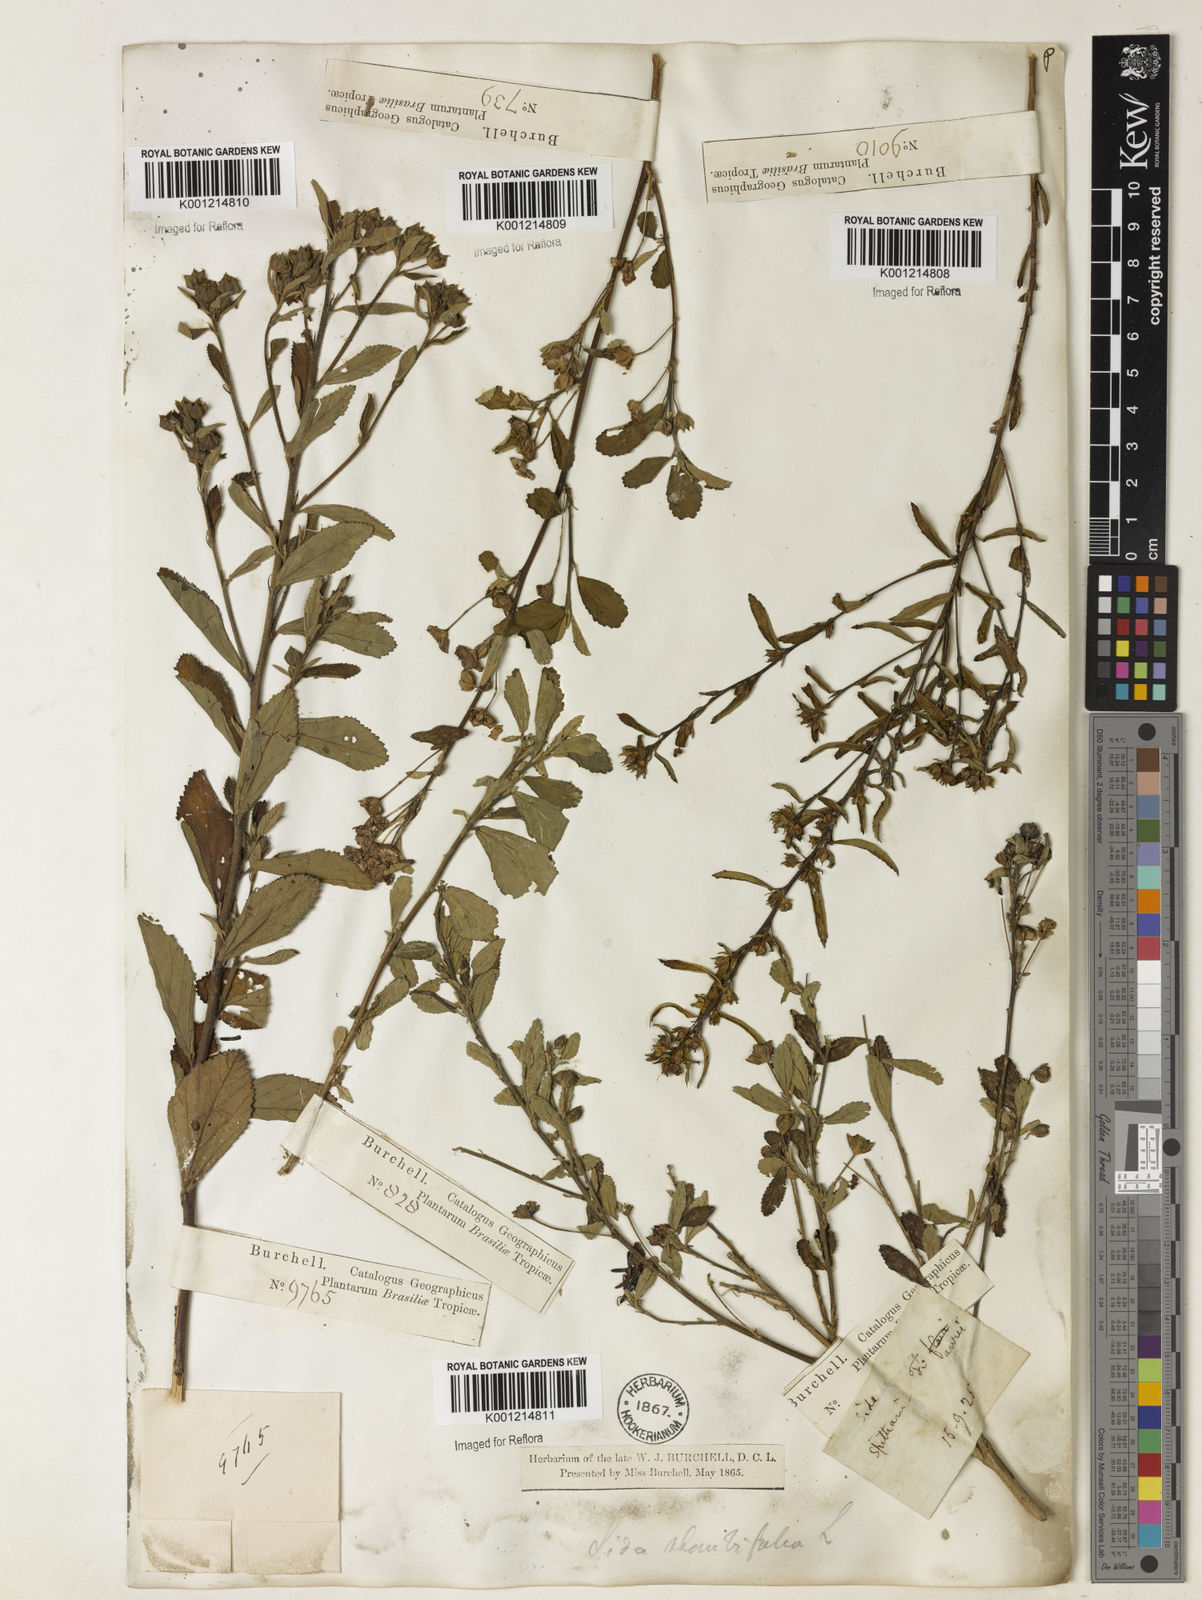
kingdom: Plantae
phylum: Tracheophyta
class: Magnoliopsida
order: Malvales
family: Malvaceae
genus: Sida
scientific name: Sida rhombifolia
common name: Queensland-hemp
